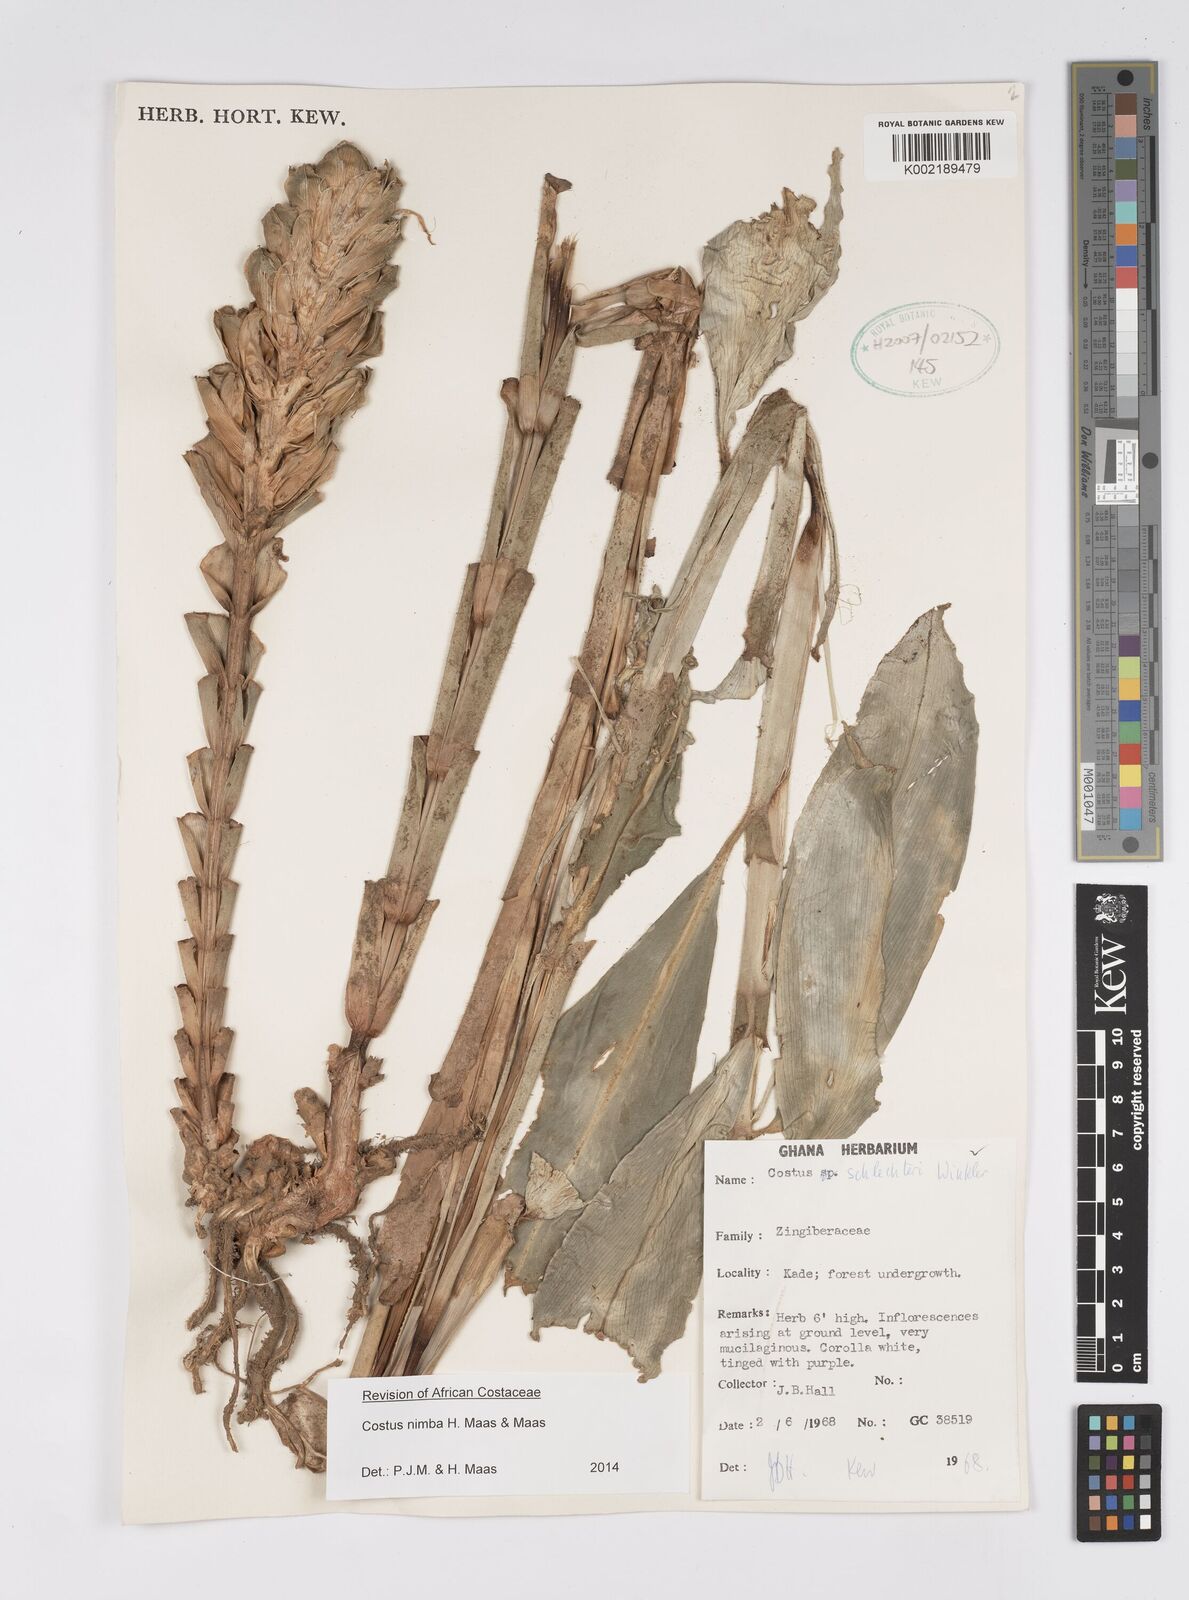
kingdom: Plantae
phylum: Tracheophyta
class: Liliopsida
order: Zingiberales
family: Costaceae
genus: Costus
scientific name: Costus nimba
